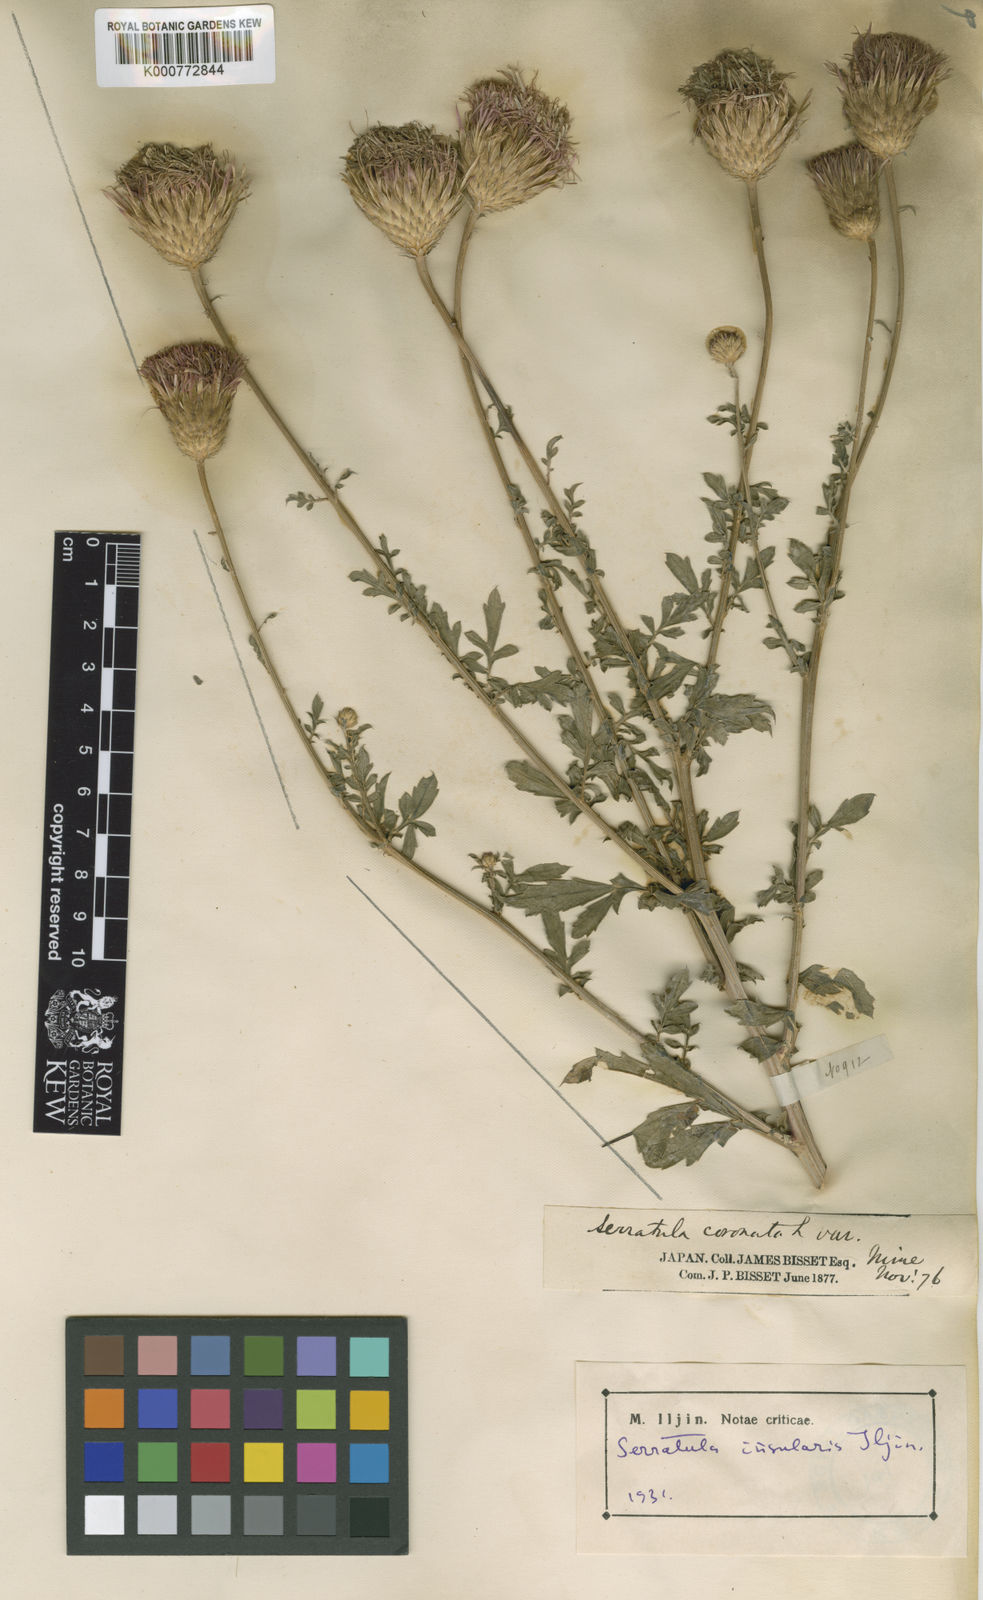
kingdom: Plantae
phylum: Tracheophyta
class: Magnoliopsida
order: Asterales
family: Asteraceae
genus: Serratula
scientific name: Serratula coronata
